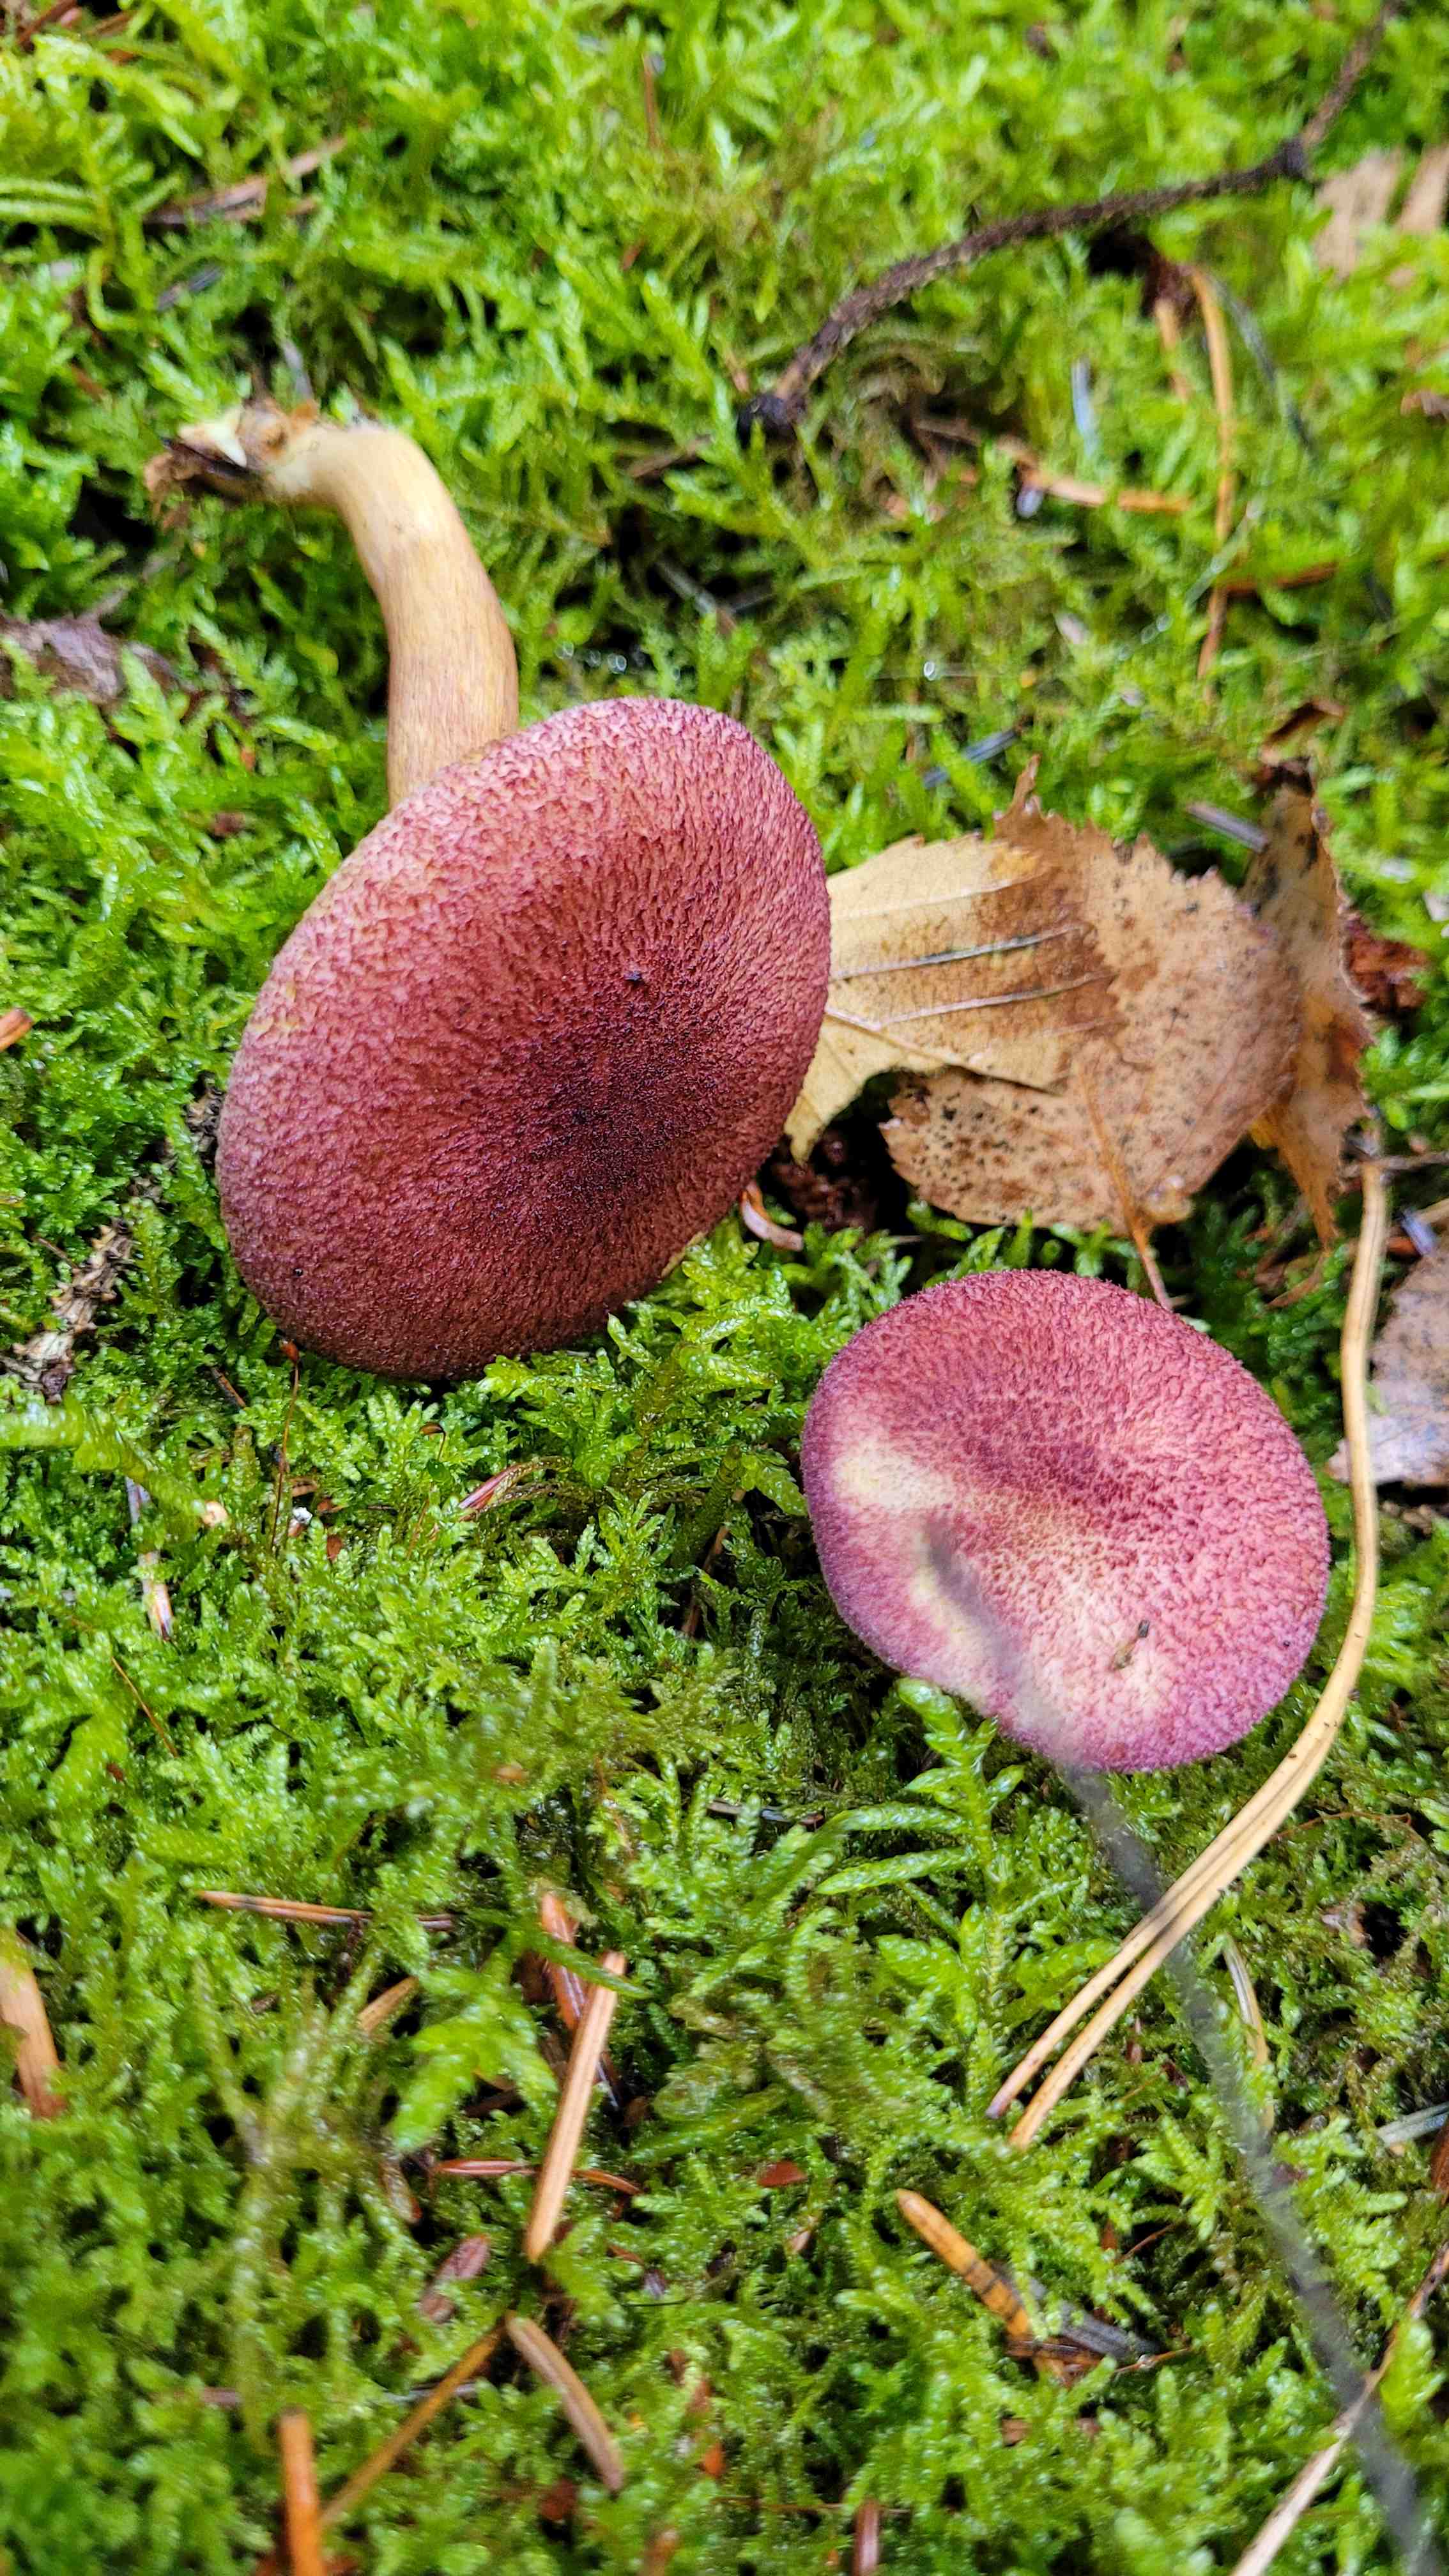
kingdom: Fungi
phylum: Basidiomycota
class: Agaricomycetes
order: Agaricales
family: Tricholomataceae
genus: Tricholomopsis
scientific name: Tricholomopsis rutilans
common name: purpur-væbnerhat
